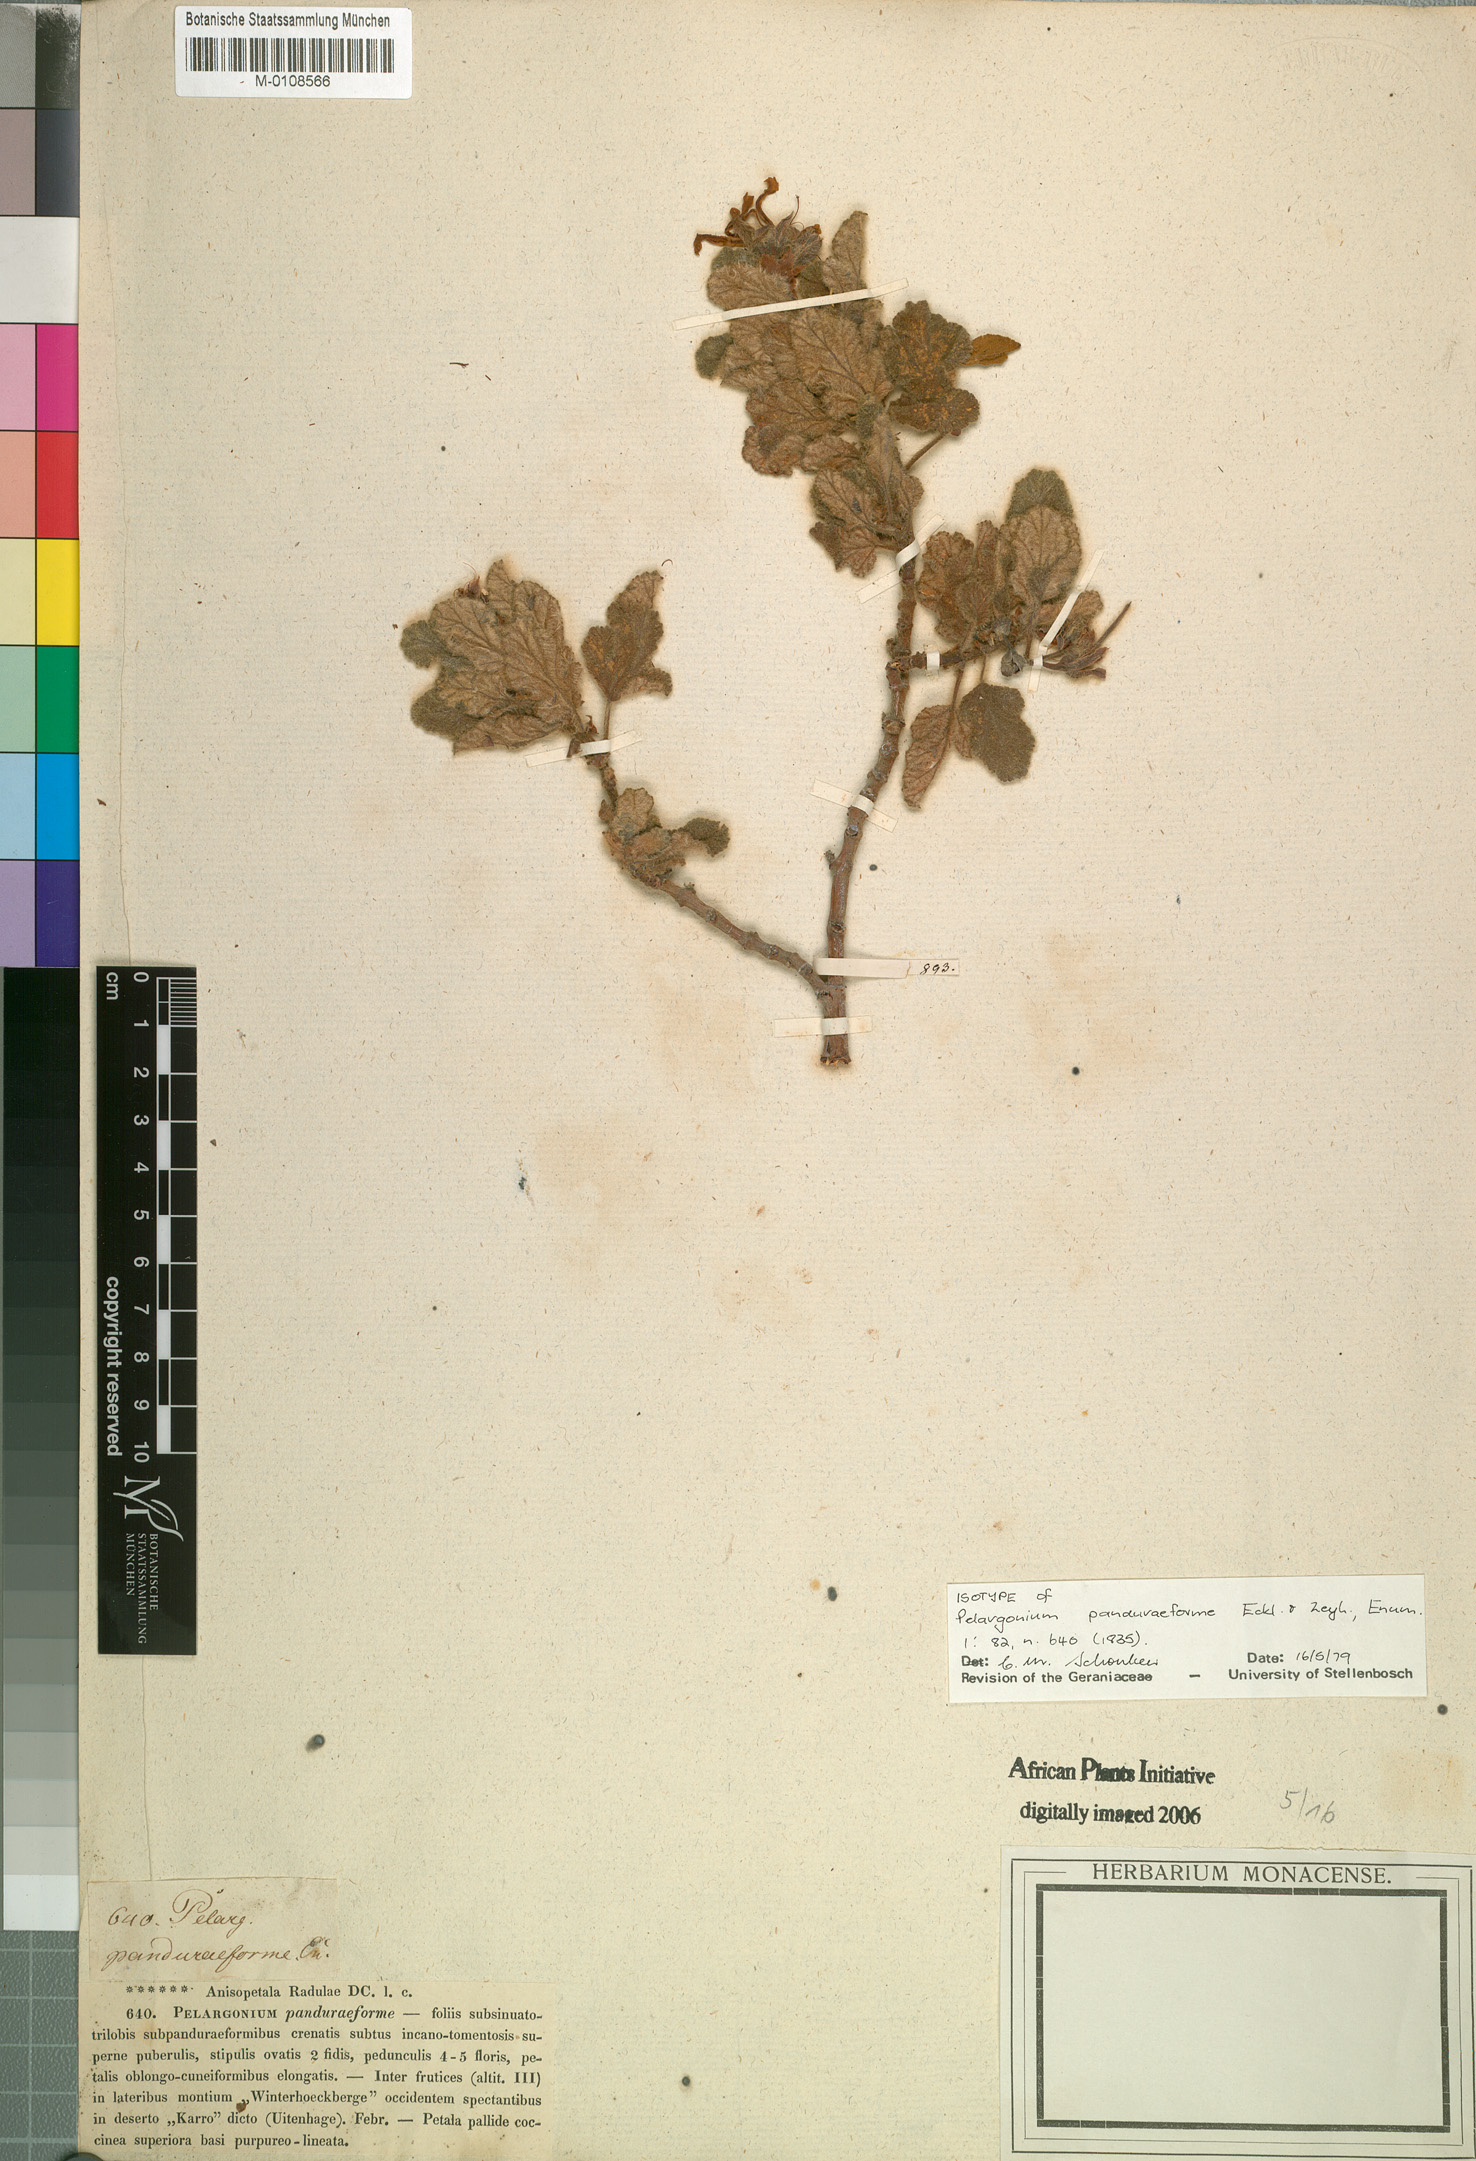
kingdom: Plantae
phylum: Tracheophyta
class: Magnoliopsida
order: Geraniales
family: Geraniaceae
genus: Pelargonium
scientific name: Pelargonium panduriforme
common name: Oakleaf garden geranium
